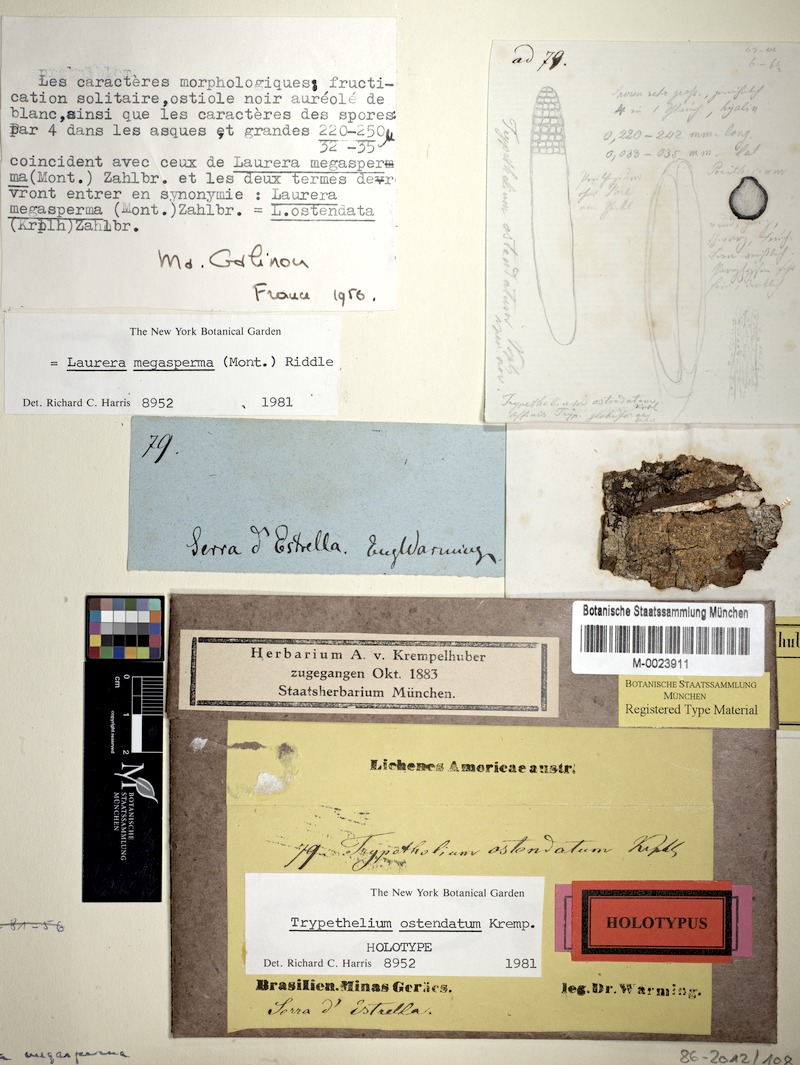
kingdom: Fungi
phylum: Ascomycota
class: Dothideomycetes
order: Trypetheliales
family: Trypetheliaceae
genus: Astrothelium
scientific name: Astrothelium megaspermum
